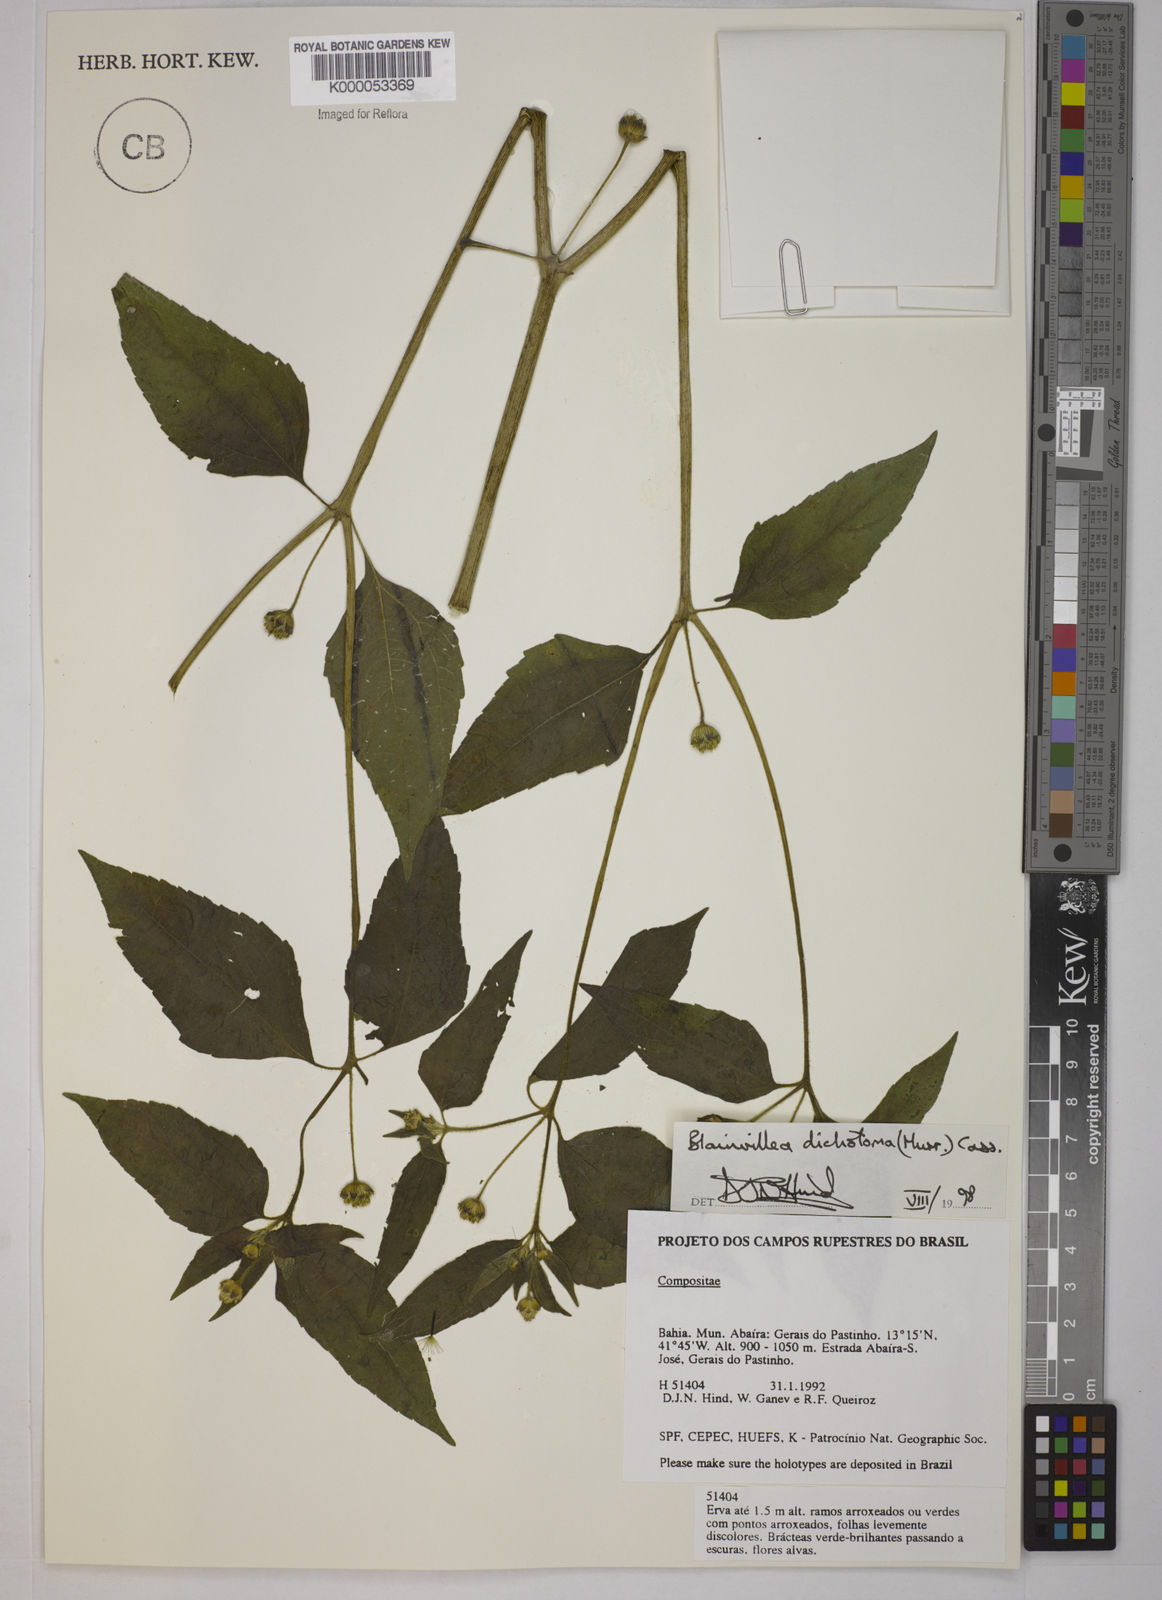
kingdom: Plantae
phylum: Tracheophyta
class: Magnoliopsida
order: Asterales
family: Asteraceae
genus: Blainvillea
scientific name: Blainvillea acmella
